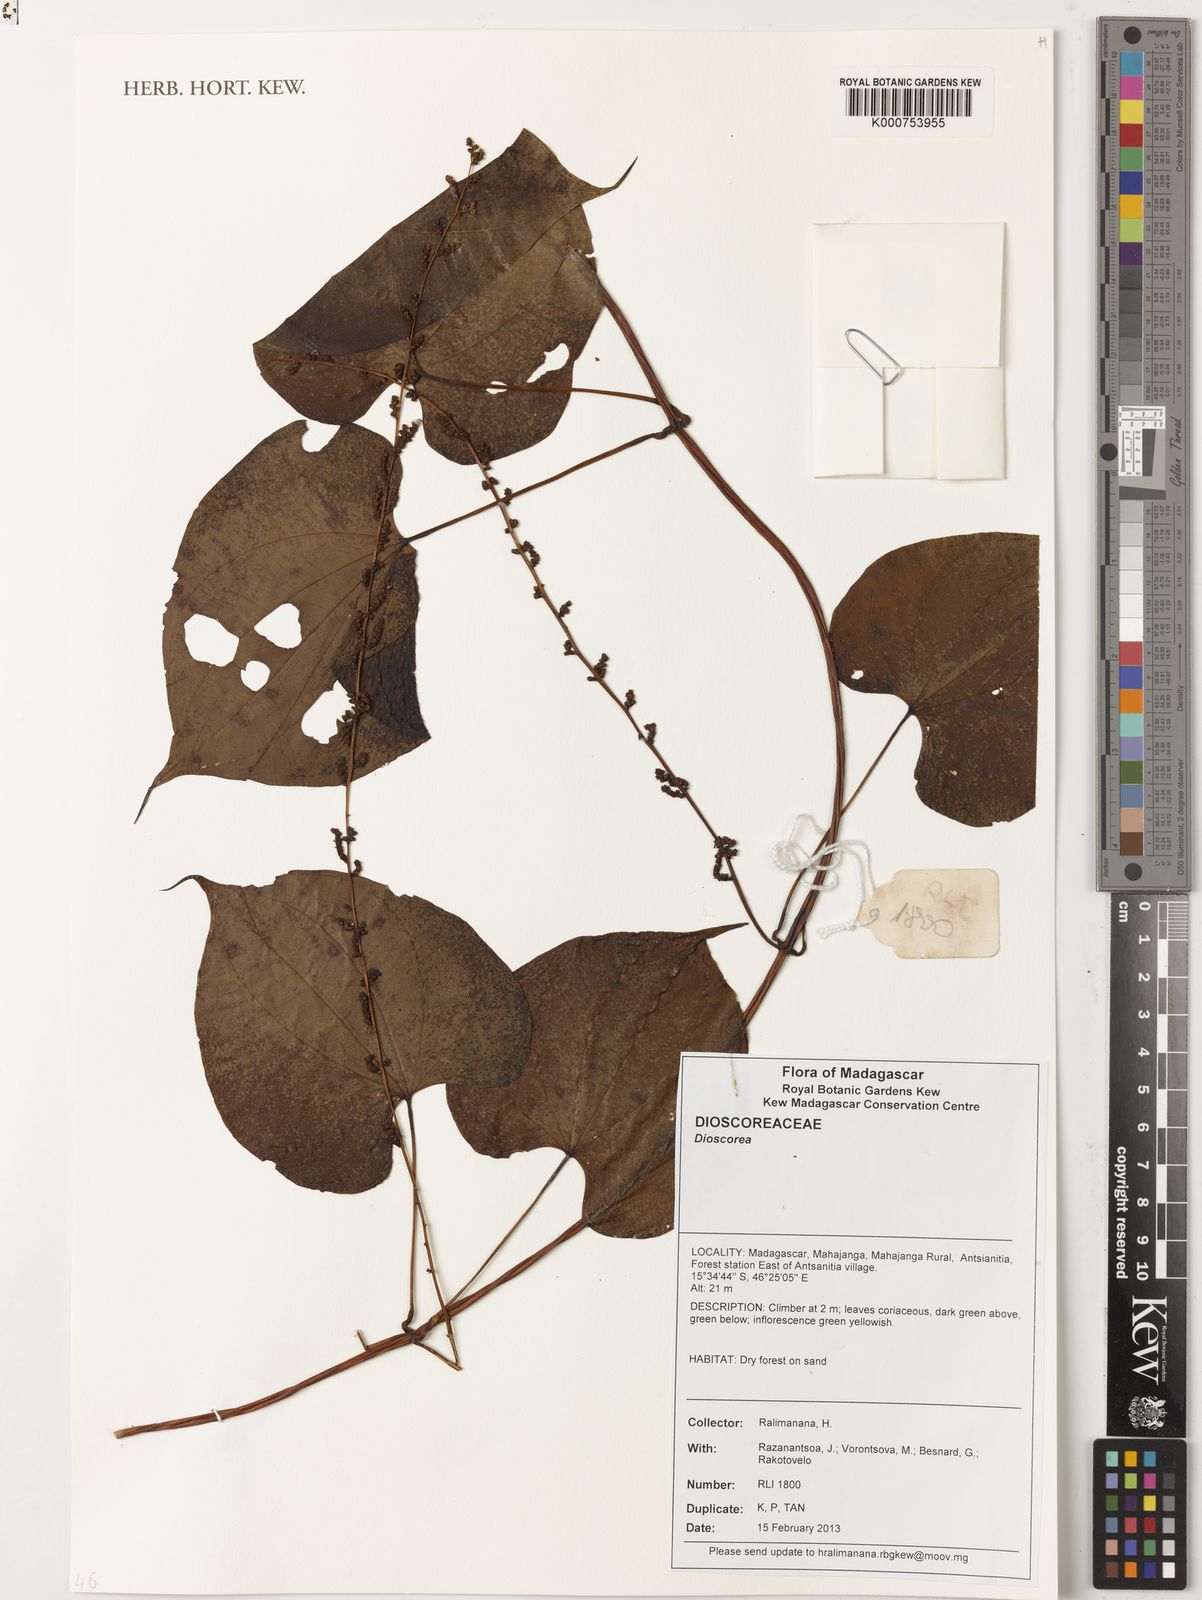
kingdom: Plantae
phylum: Tracheophyta
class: Liliopsida
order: Dioscoreales
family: Dioscoreaceae
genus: Dioscorea
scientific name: Dioscorea
